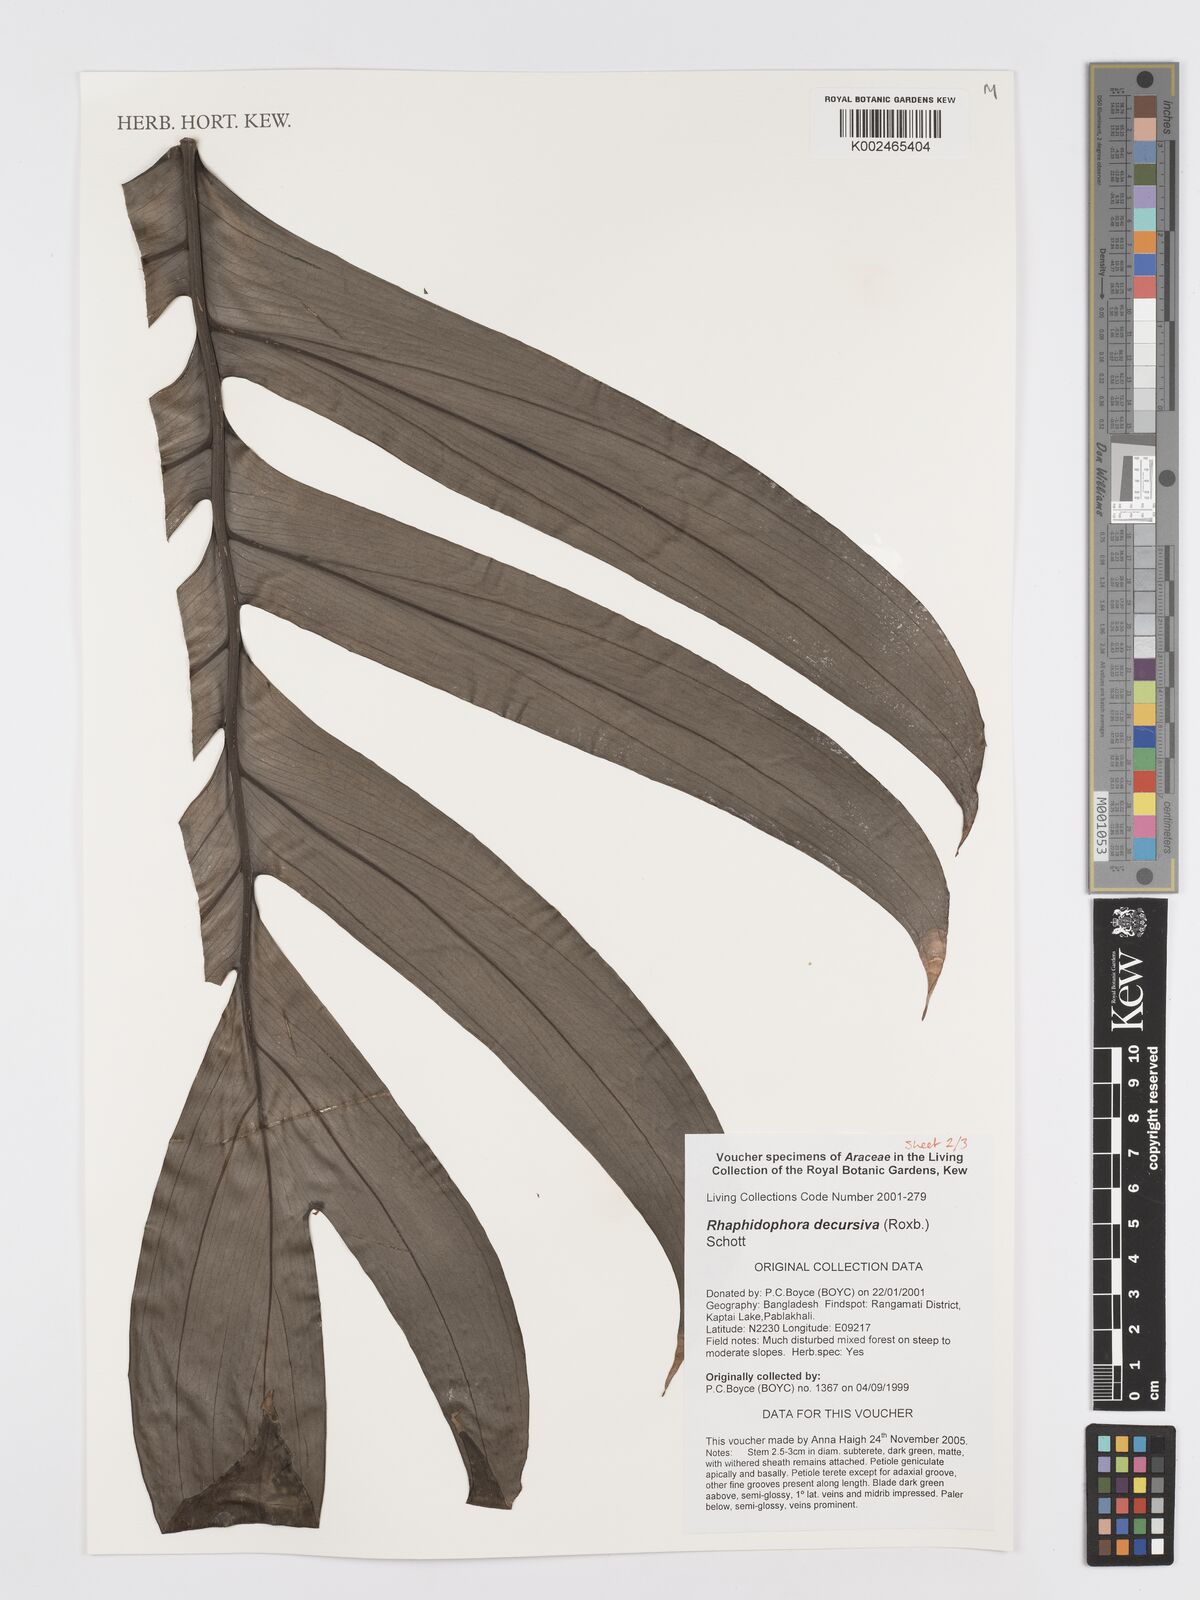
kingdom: Plantae
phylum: Tracheophyta
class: Liliopsida
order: Alismatales
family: Araceae
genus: Rhaphidophora
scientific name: Rhaphidophora decursiva
